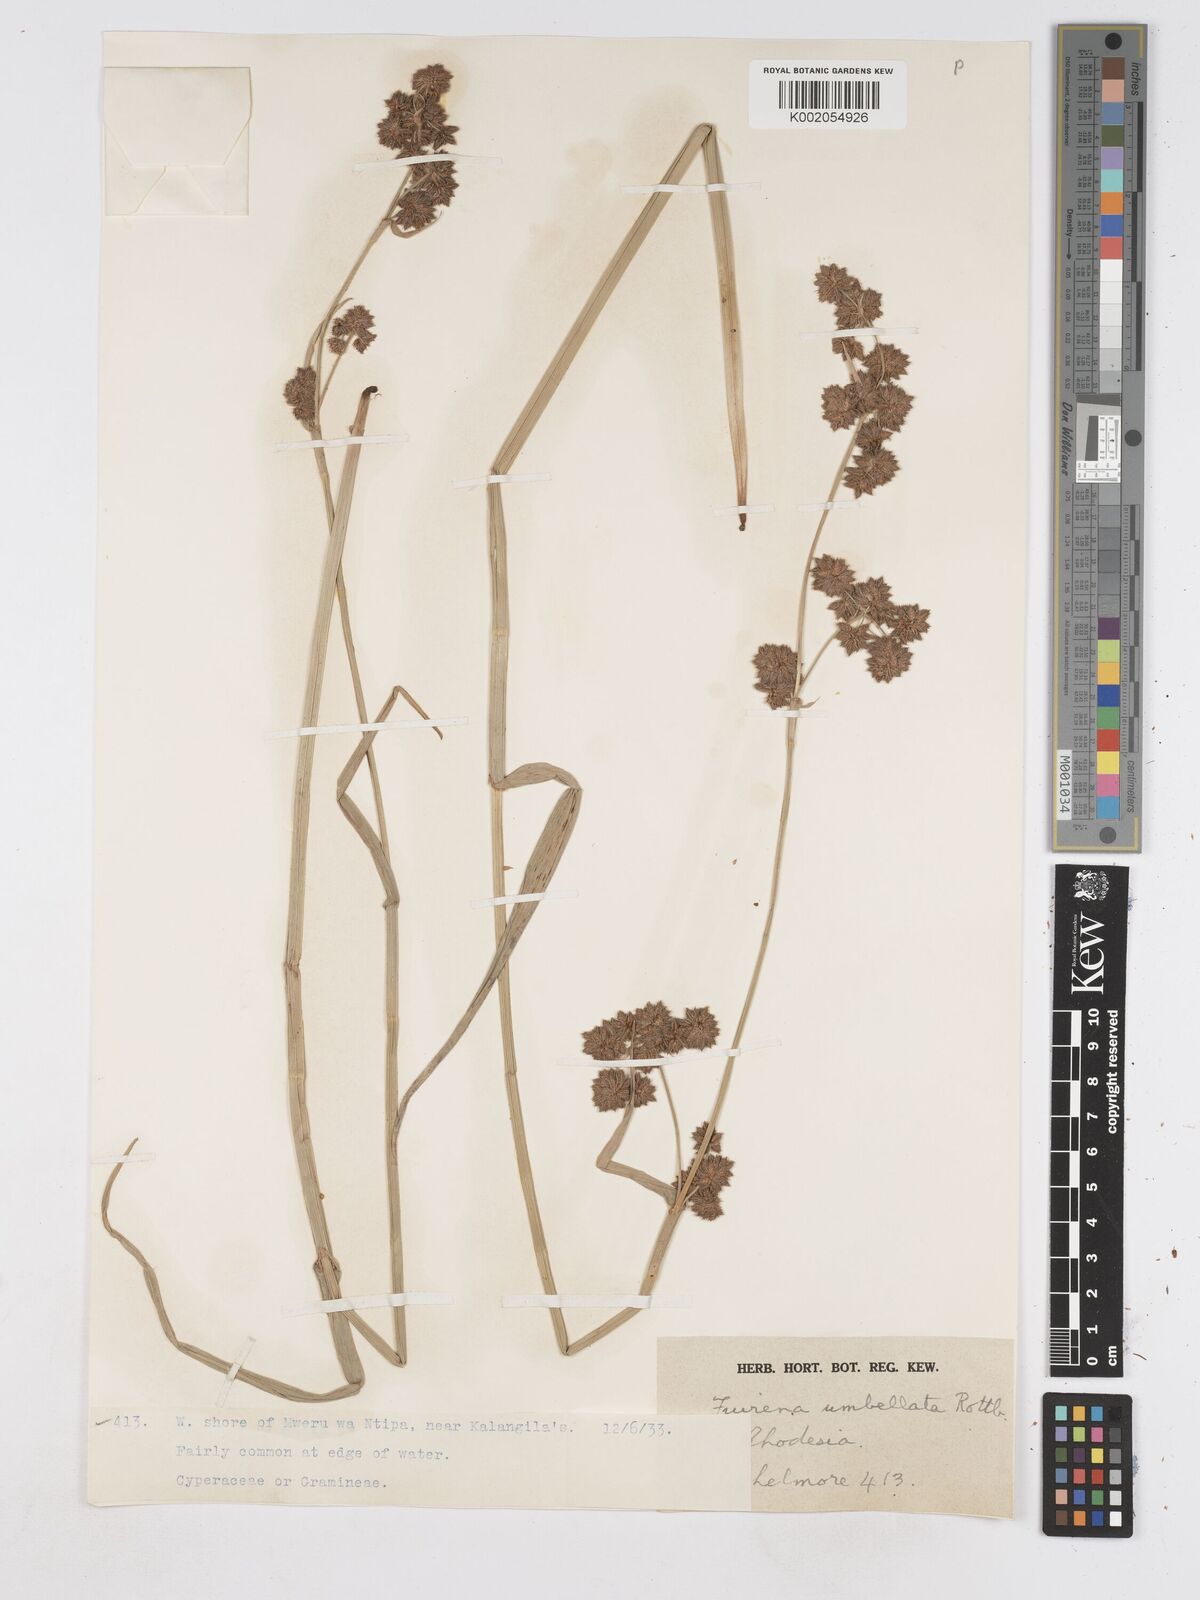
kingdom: Plantae
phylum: Tracheophyta
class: Liliopsida
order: Poales
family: Cyperaceae
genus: Fuirena
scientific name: Fuirena umbellata
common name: Yefen
